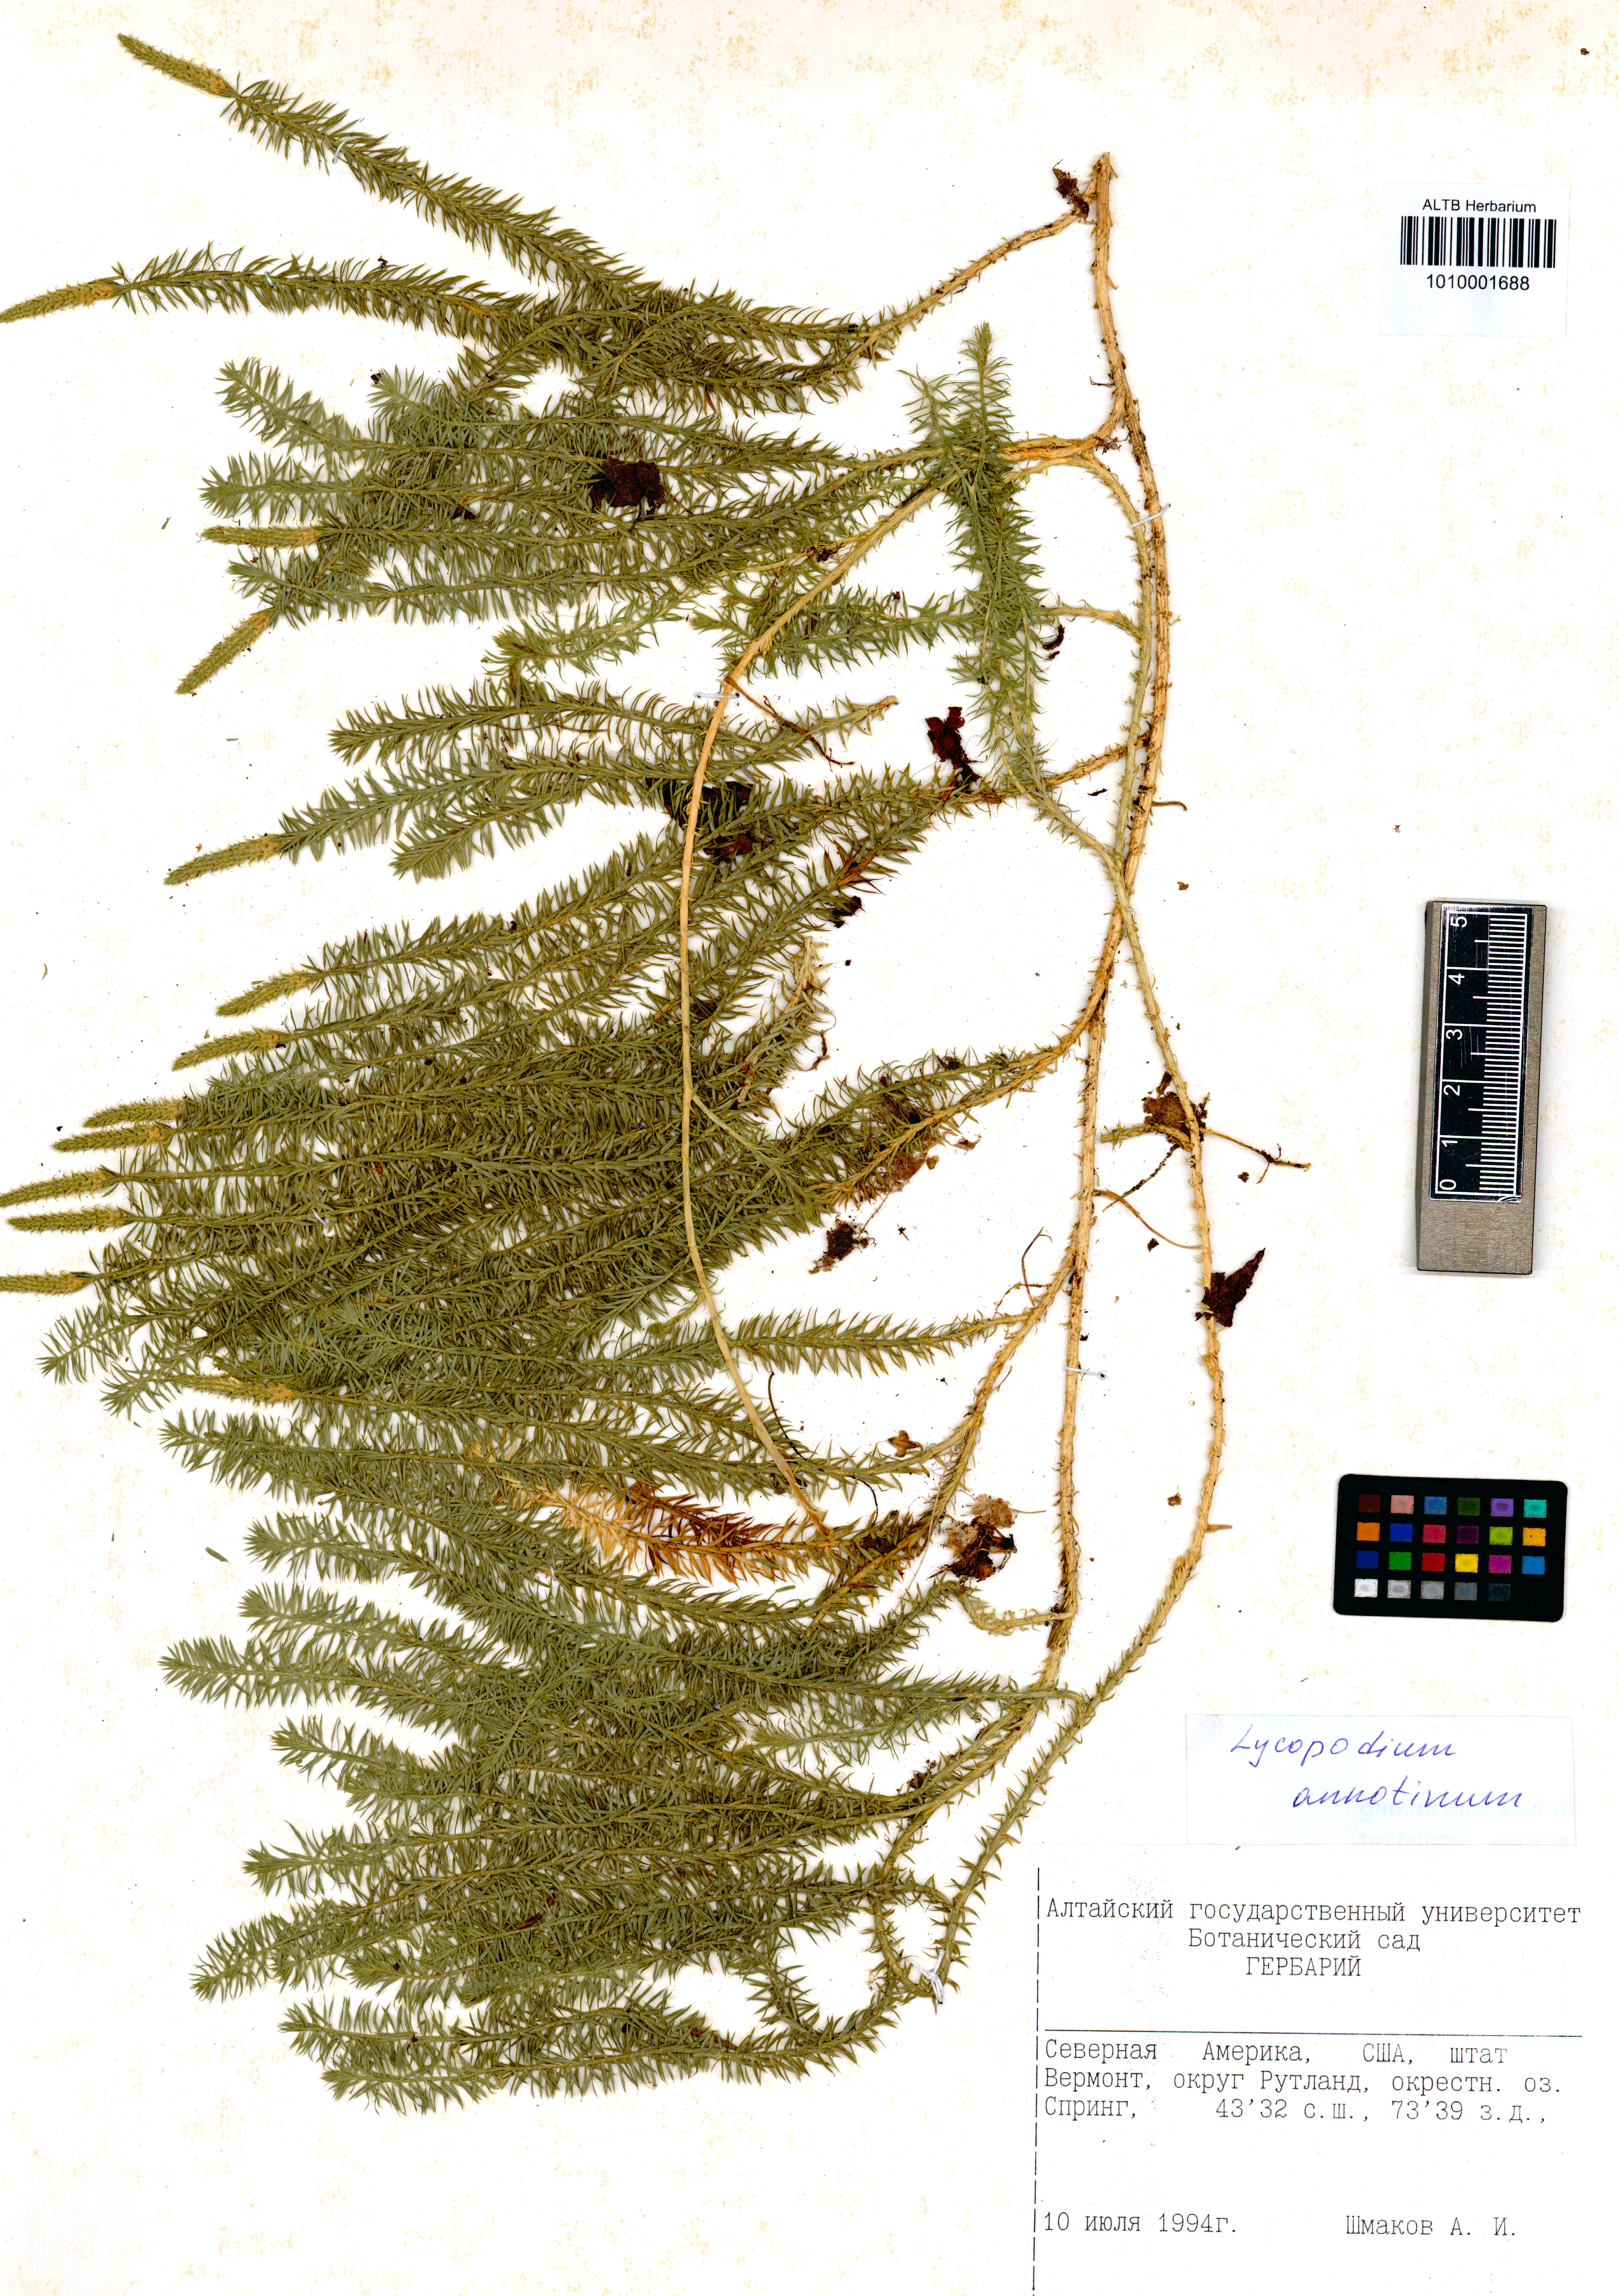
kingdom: Plantae
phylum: Tracheophyta
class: Lycopodiopsida
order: Lycopodiales
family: Lycopodiaceae
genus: Spinulum
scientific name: Spinulum annotinum
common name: Interrupted club-moss
